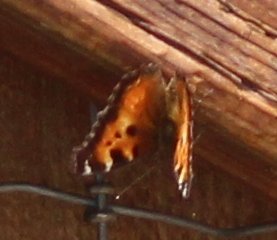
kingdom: Animalia
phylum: Arthropoda
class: Insecta
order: Lepidoptera
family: Nymphalidae
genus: Nymphalis
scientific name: Nymphalis californica
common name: California Tortoiseshell
